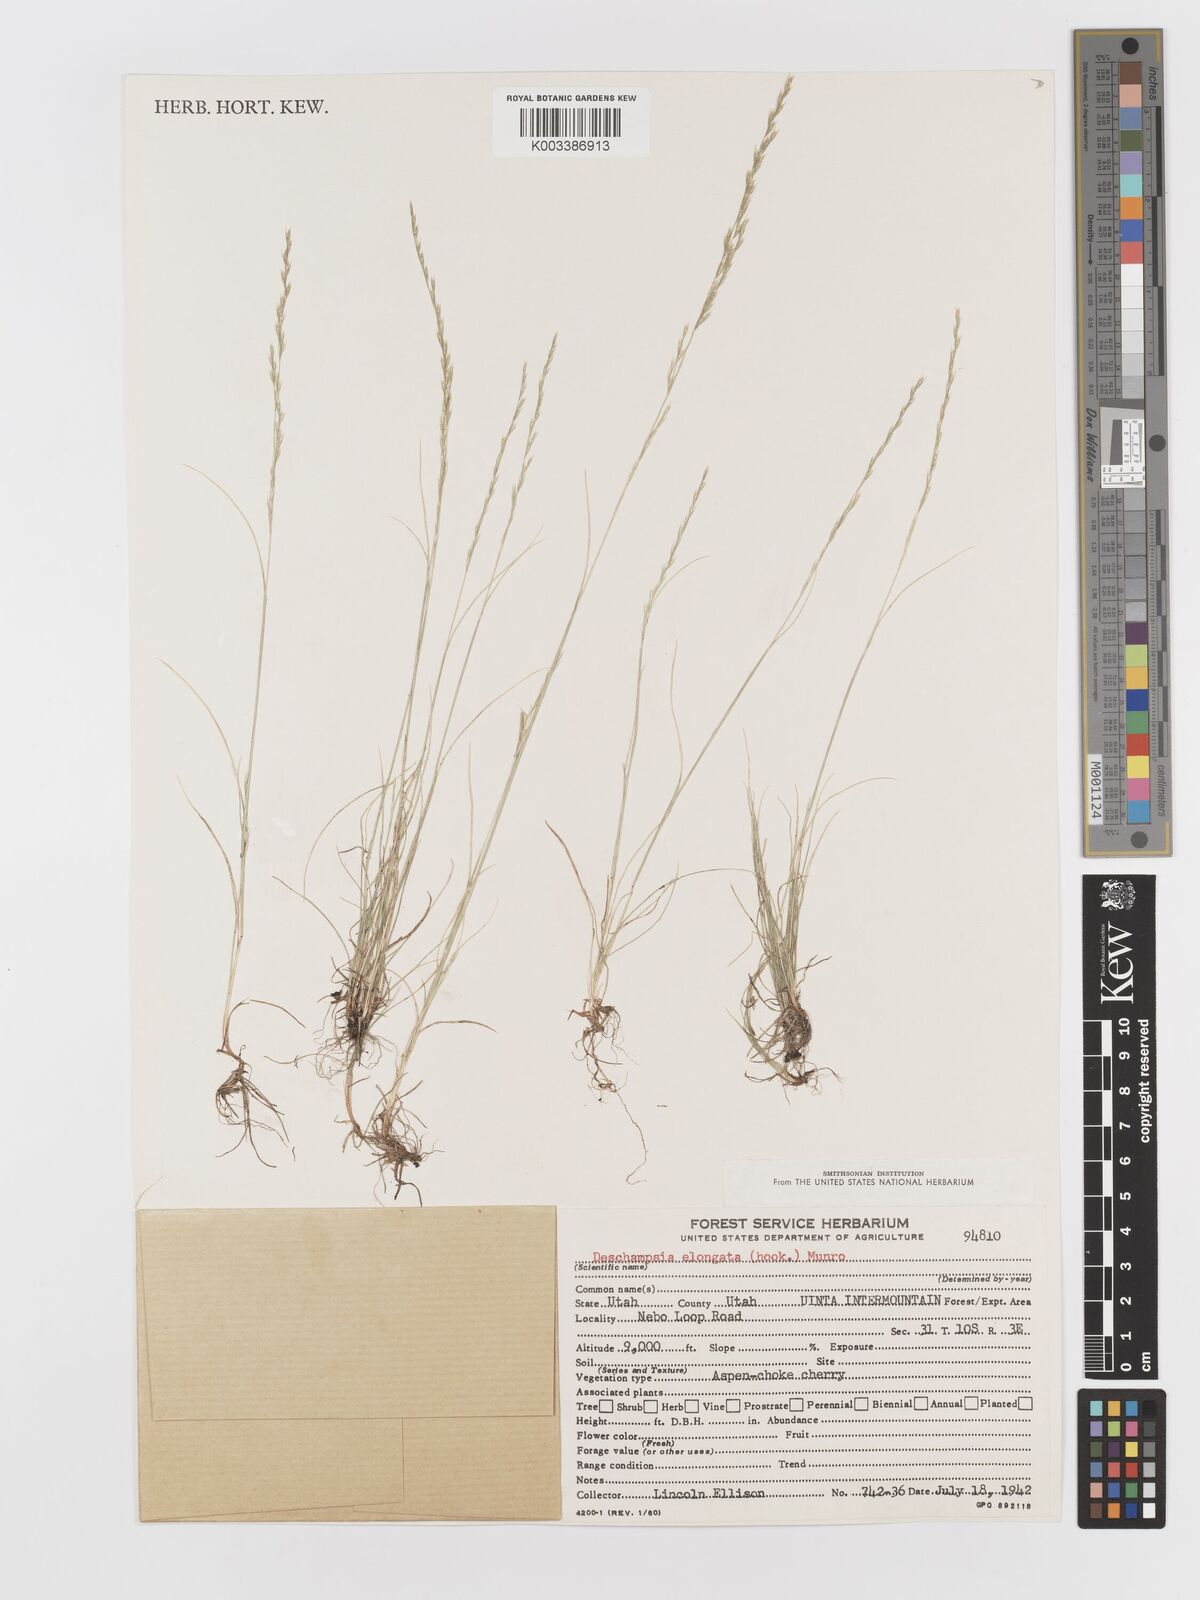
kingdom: Plantae
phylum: Tracheophyta
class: Liliopsida
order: Poales
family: Poaceae
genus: Deschampsia
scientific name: Deschampsia elongata
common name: Slender hairgrass
